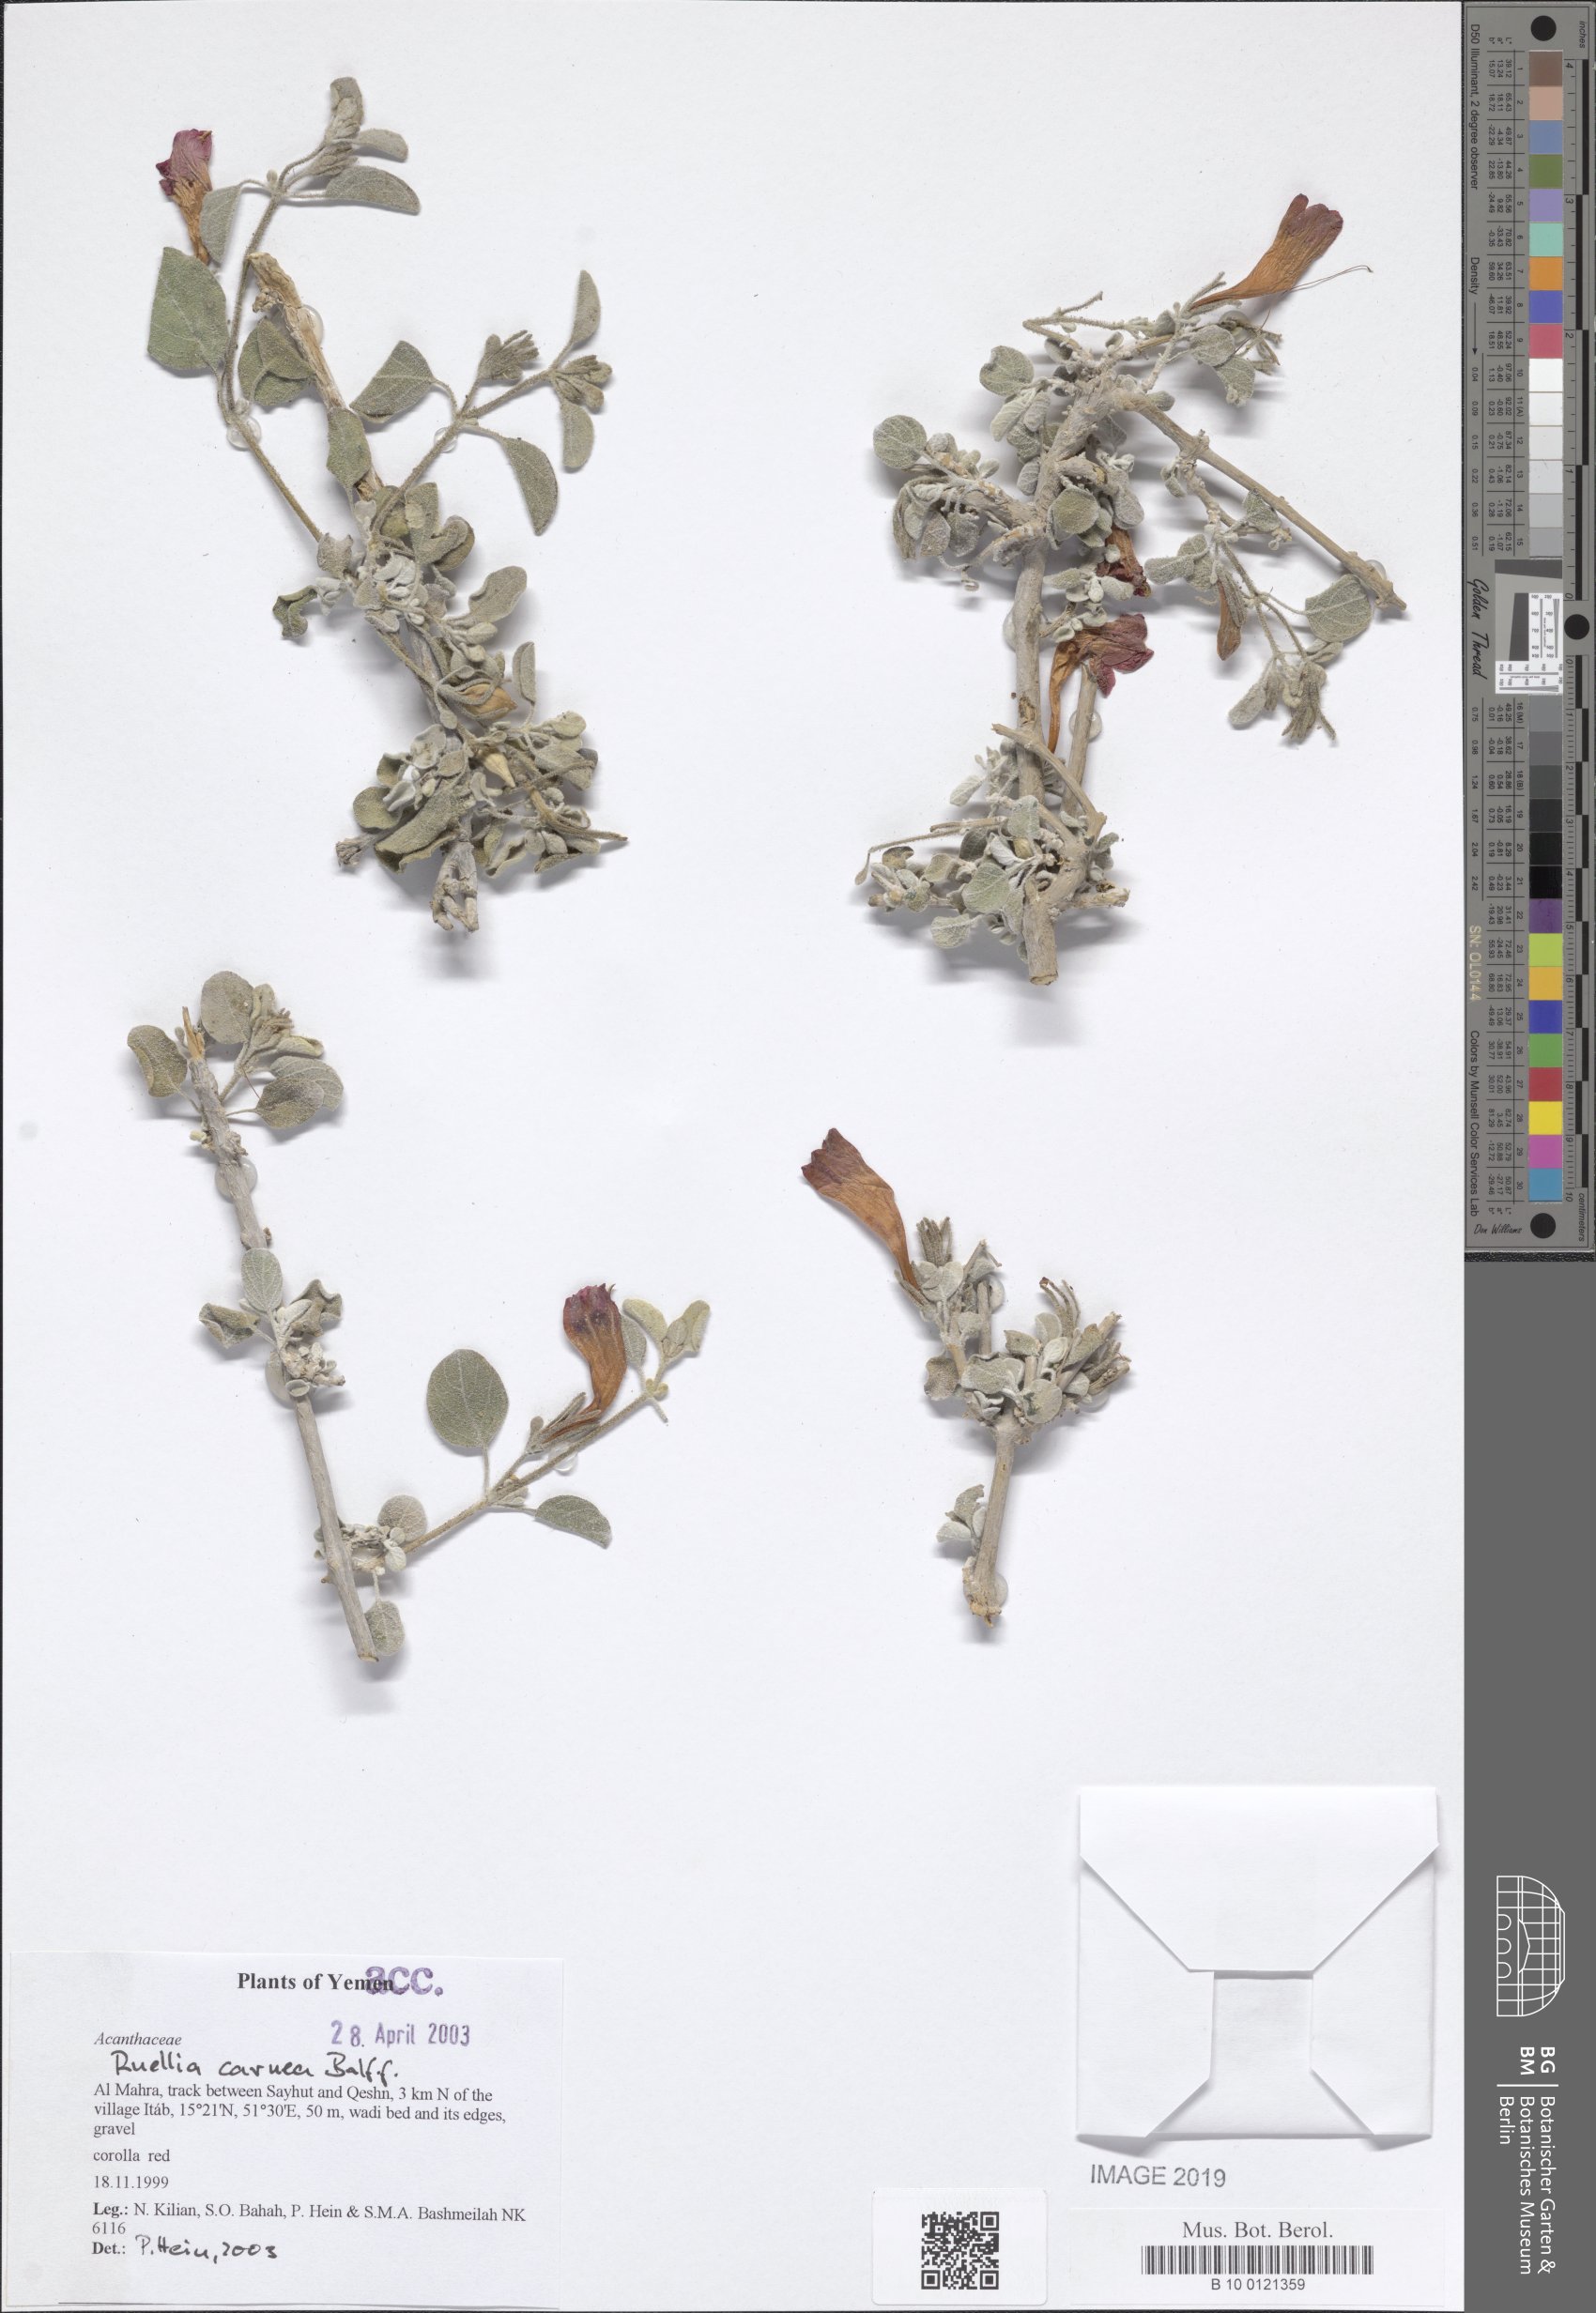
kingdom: Plantae
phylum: Tracheophyta
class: Magnoliopsida
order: Lamiales
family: Acanthaceae
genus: Ruellia
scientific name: Ruellia carnea
